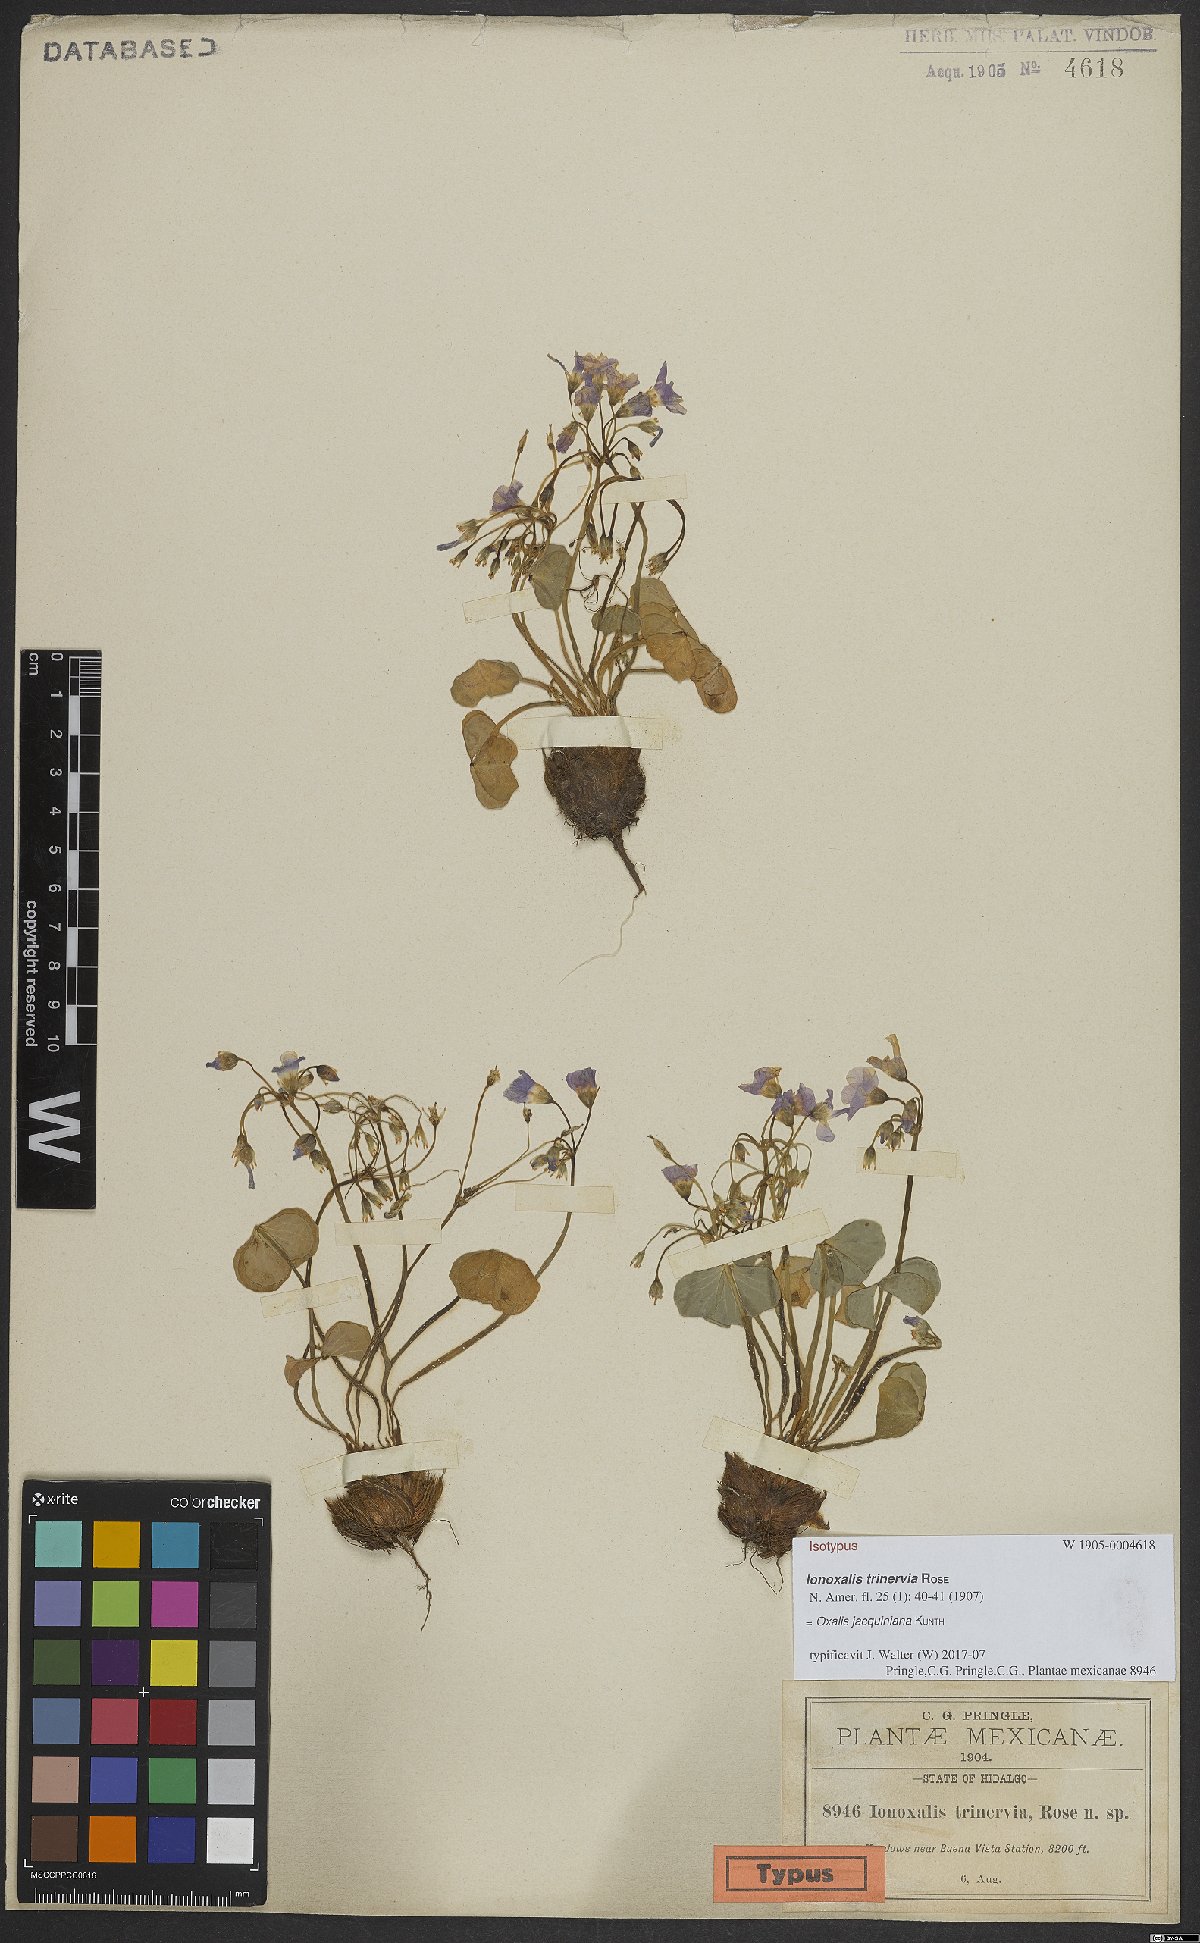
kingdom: Plantae
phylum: Tracheophyta
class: Magnoliopsida
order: Oxalidales
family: Oxalidaceae
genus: Oxalis
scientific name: Oxalis jacquiniana
